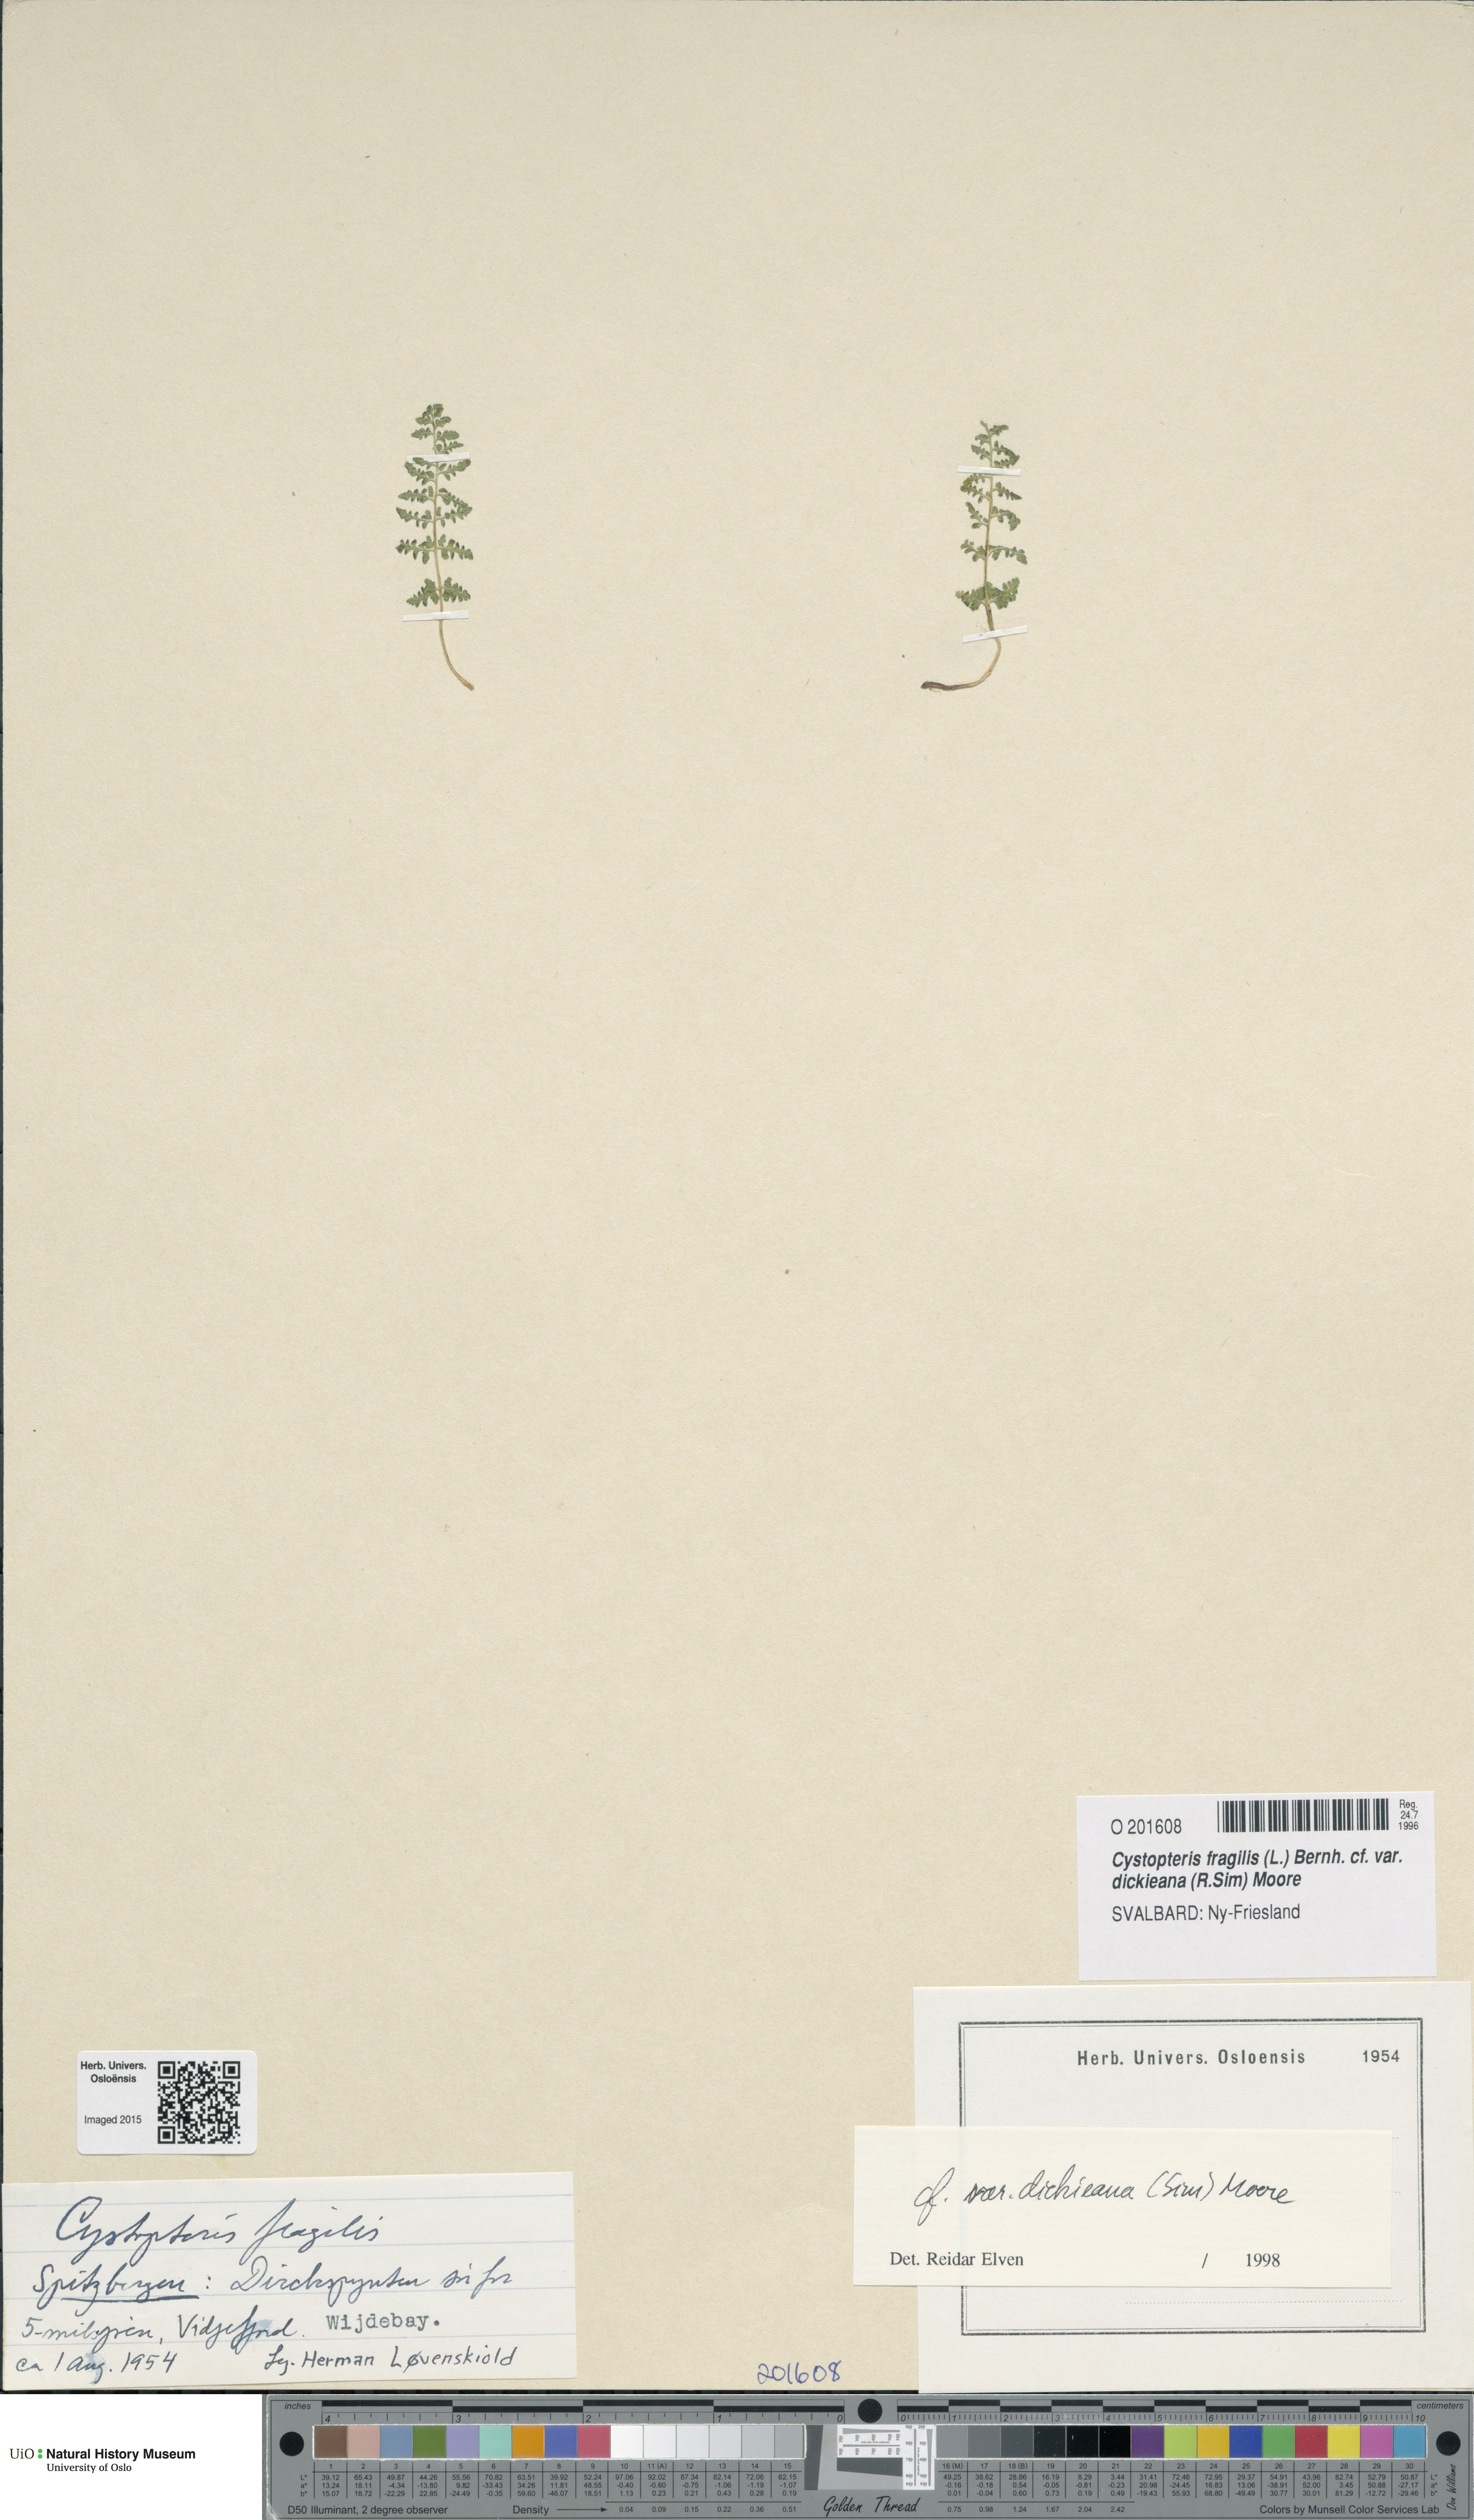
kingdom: Plantae
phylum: Tracheophyta
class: Polypodiopsida
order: Polypodiales
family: Cystopteridaceae
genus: Cystopteris
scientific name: Cystopteris dickieana
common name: Dickie's bladder-fern
